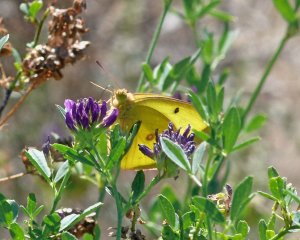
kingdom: Animalia
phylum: Arthropoda
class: Insecta
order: Lepidoptera
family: Pieridae
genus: Colias
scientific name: Colias philodice
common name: Clouded Sulphur
